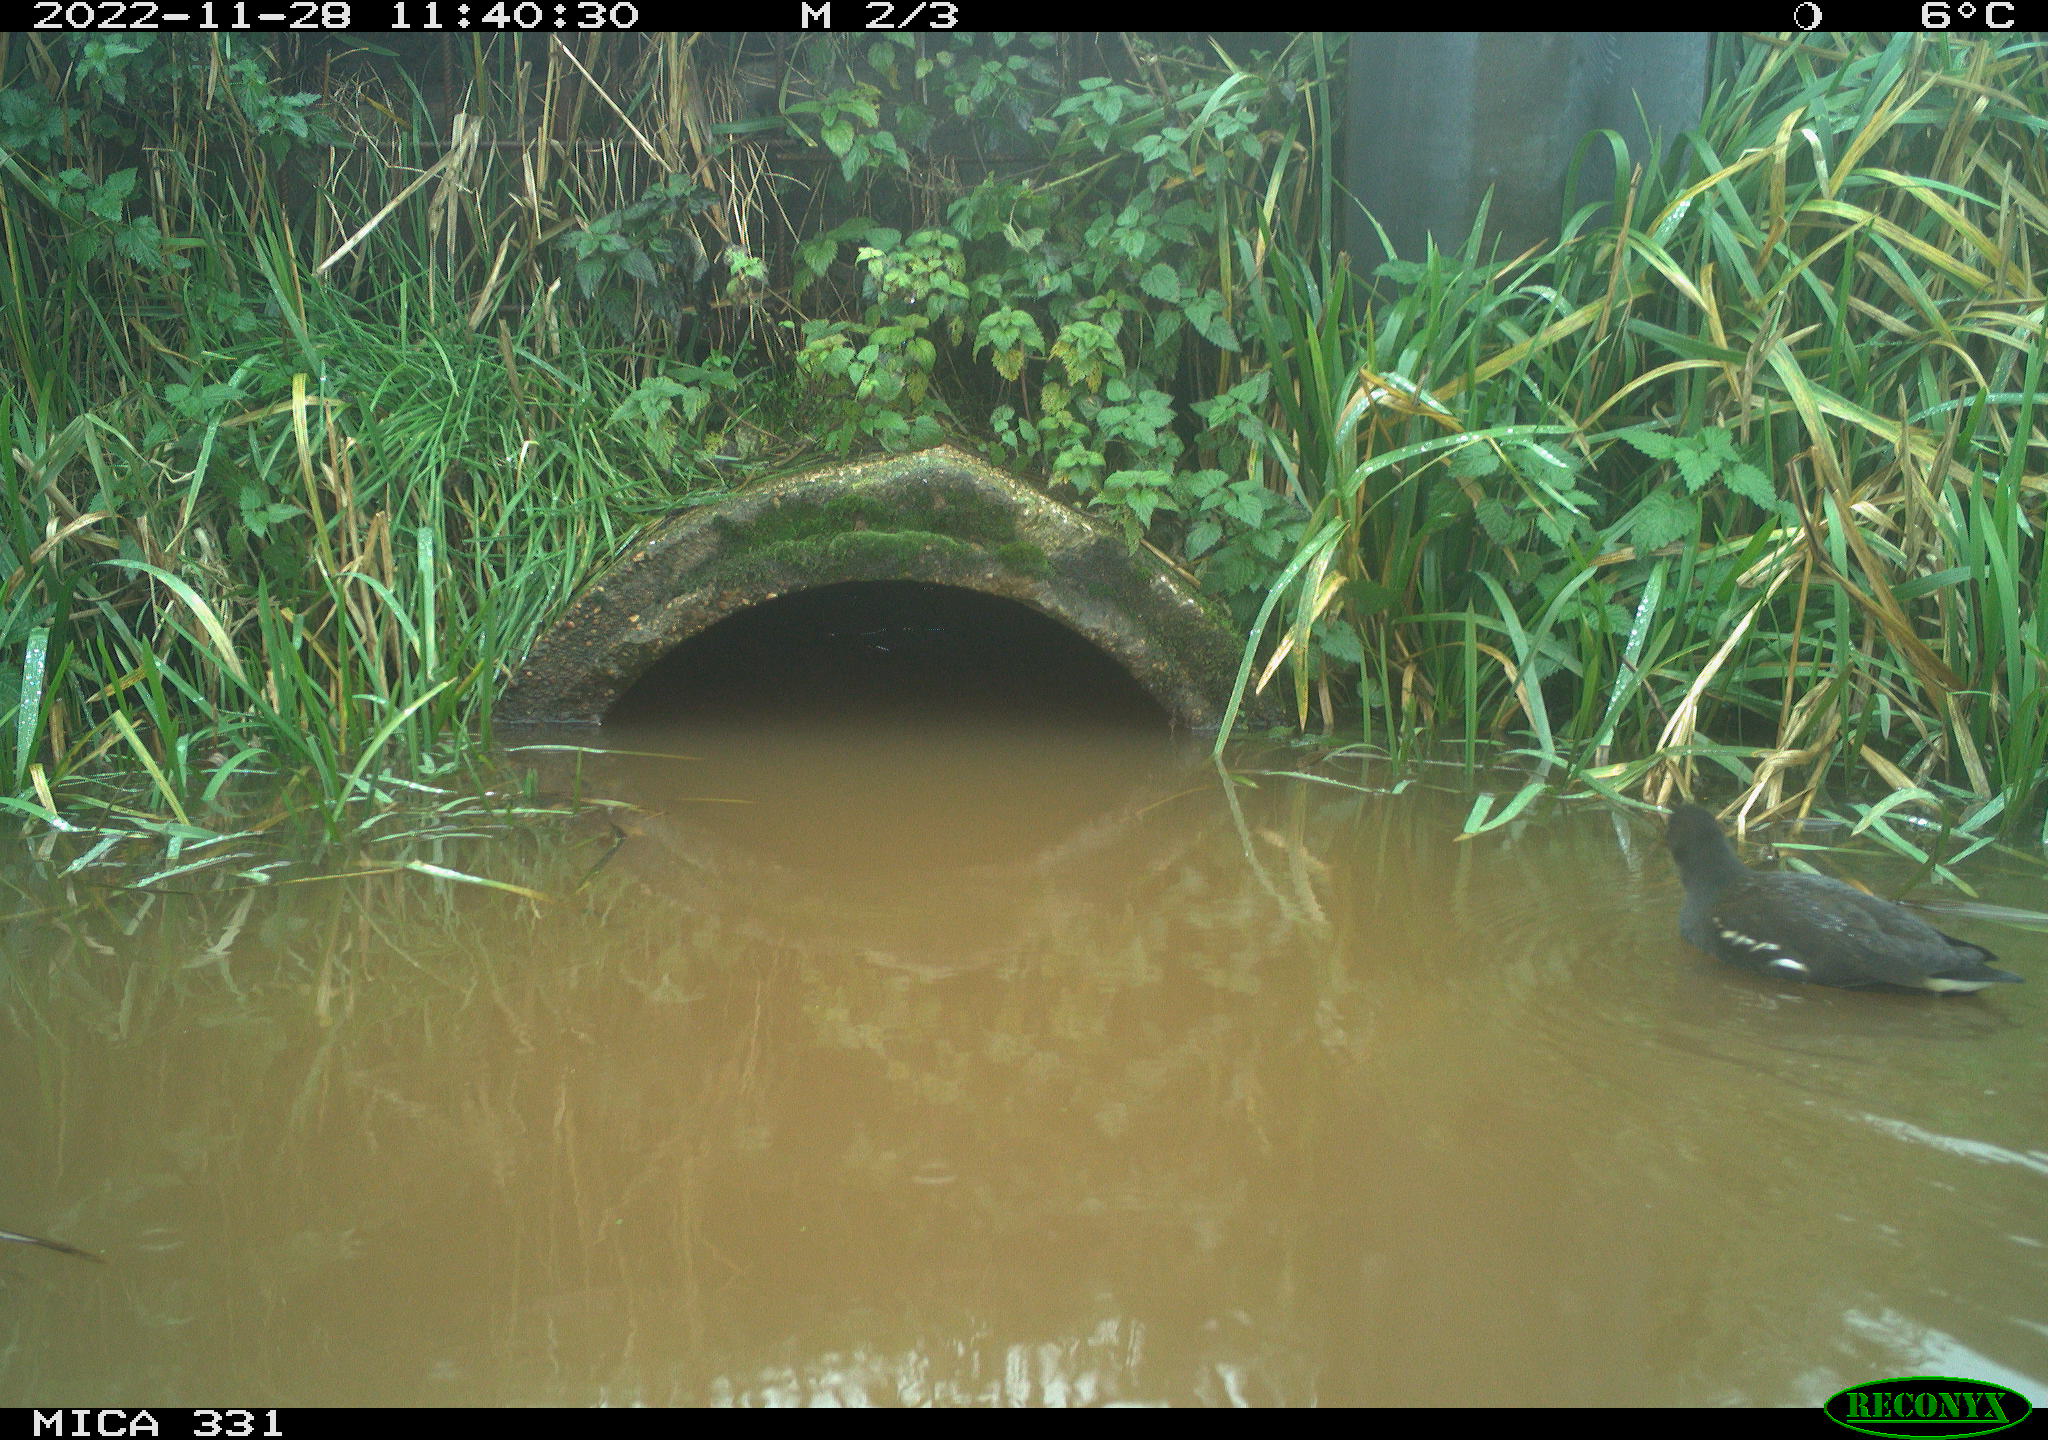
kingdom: Animalia
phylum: Chordata
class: Aves
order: Gruiformes
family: Rallidae
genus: Gallinula
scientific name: Gallinula chloropus
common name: Common moorhen
